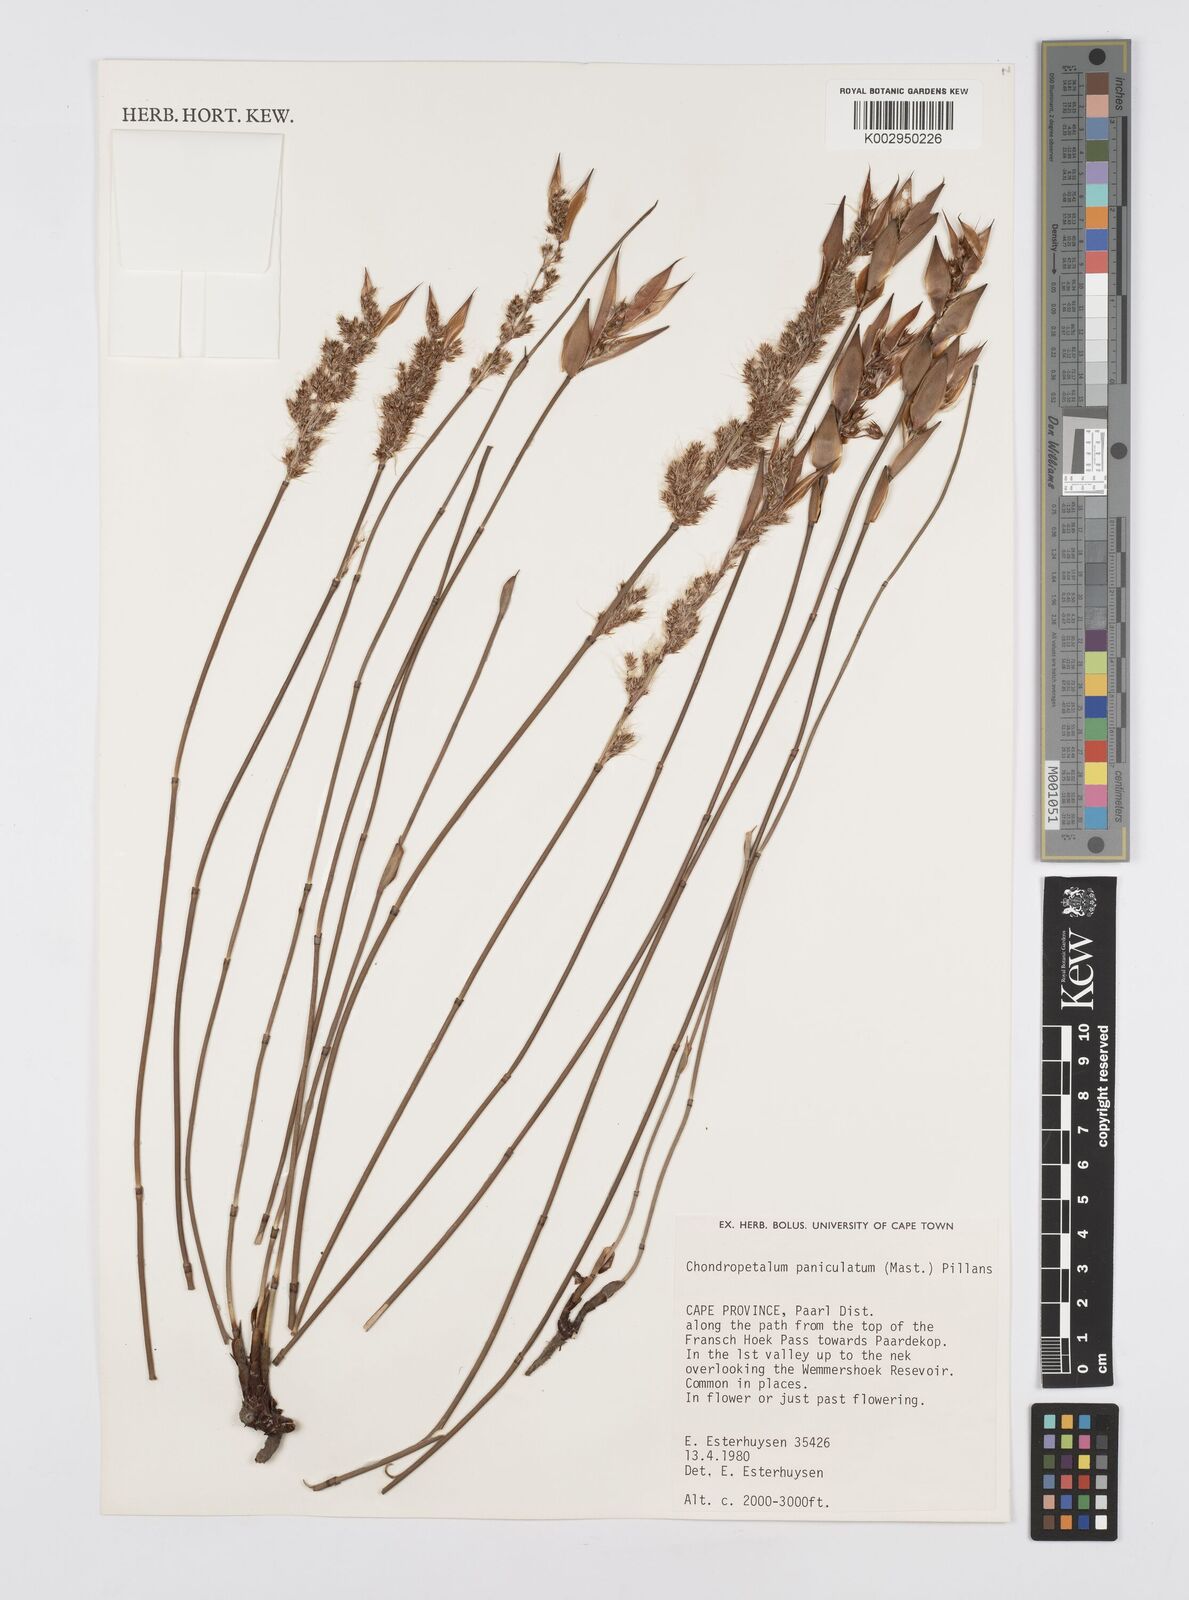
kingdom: Plantae
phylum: Tracheophyta
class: Liliopsida
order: Poales
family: Restionaceae
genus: Askidiosperma
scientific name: Askidiosperma paniculatum
